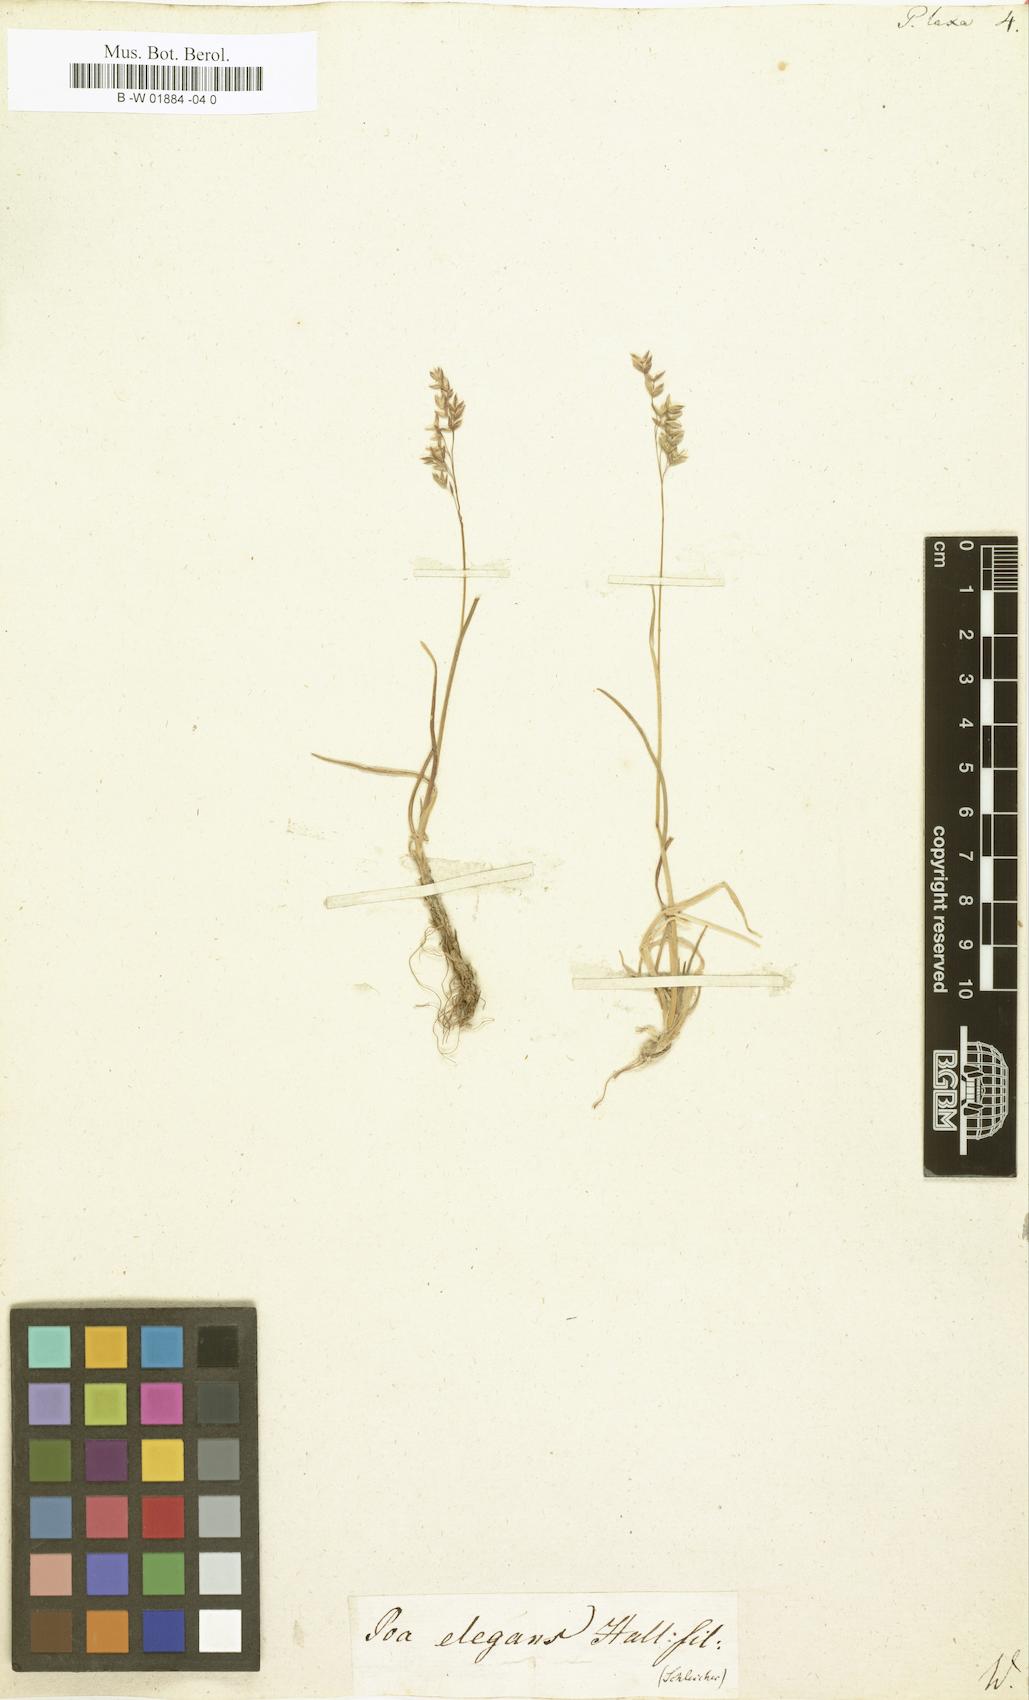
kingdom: Plantae
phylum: Tracheophyta
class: Liliopsida
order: Poales
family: Poaceae
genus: Poa
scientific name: Poa laxa
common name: Lax bluegrass
